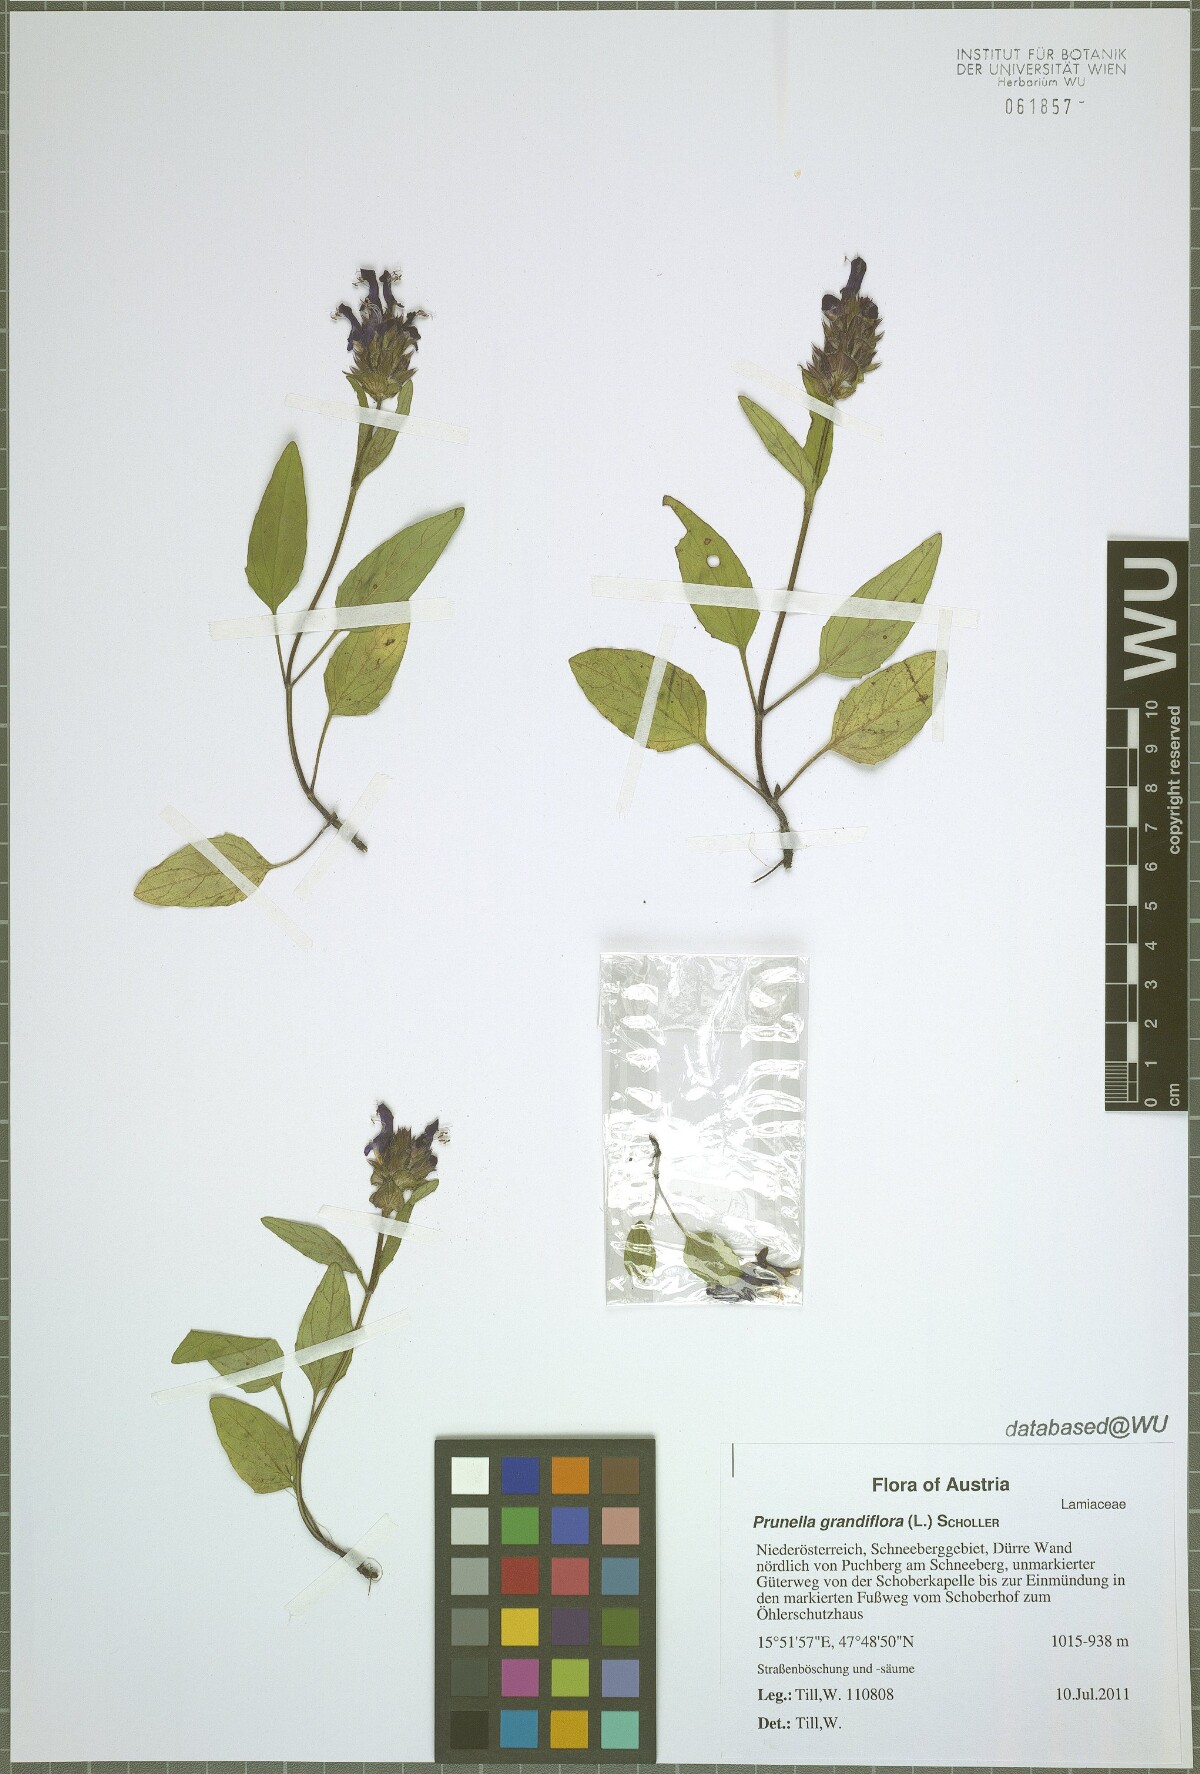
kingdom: Plantae
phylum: Tracheophyta
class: Magnoliopsida
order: Lamiales
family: Lamiaceae
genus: Prunella
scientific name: Prunella grandiflora
